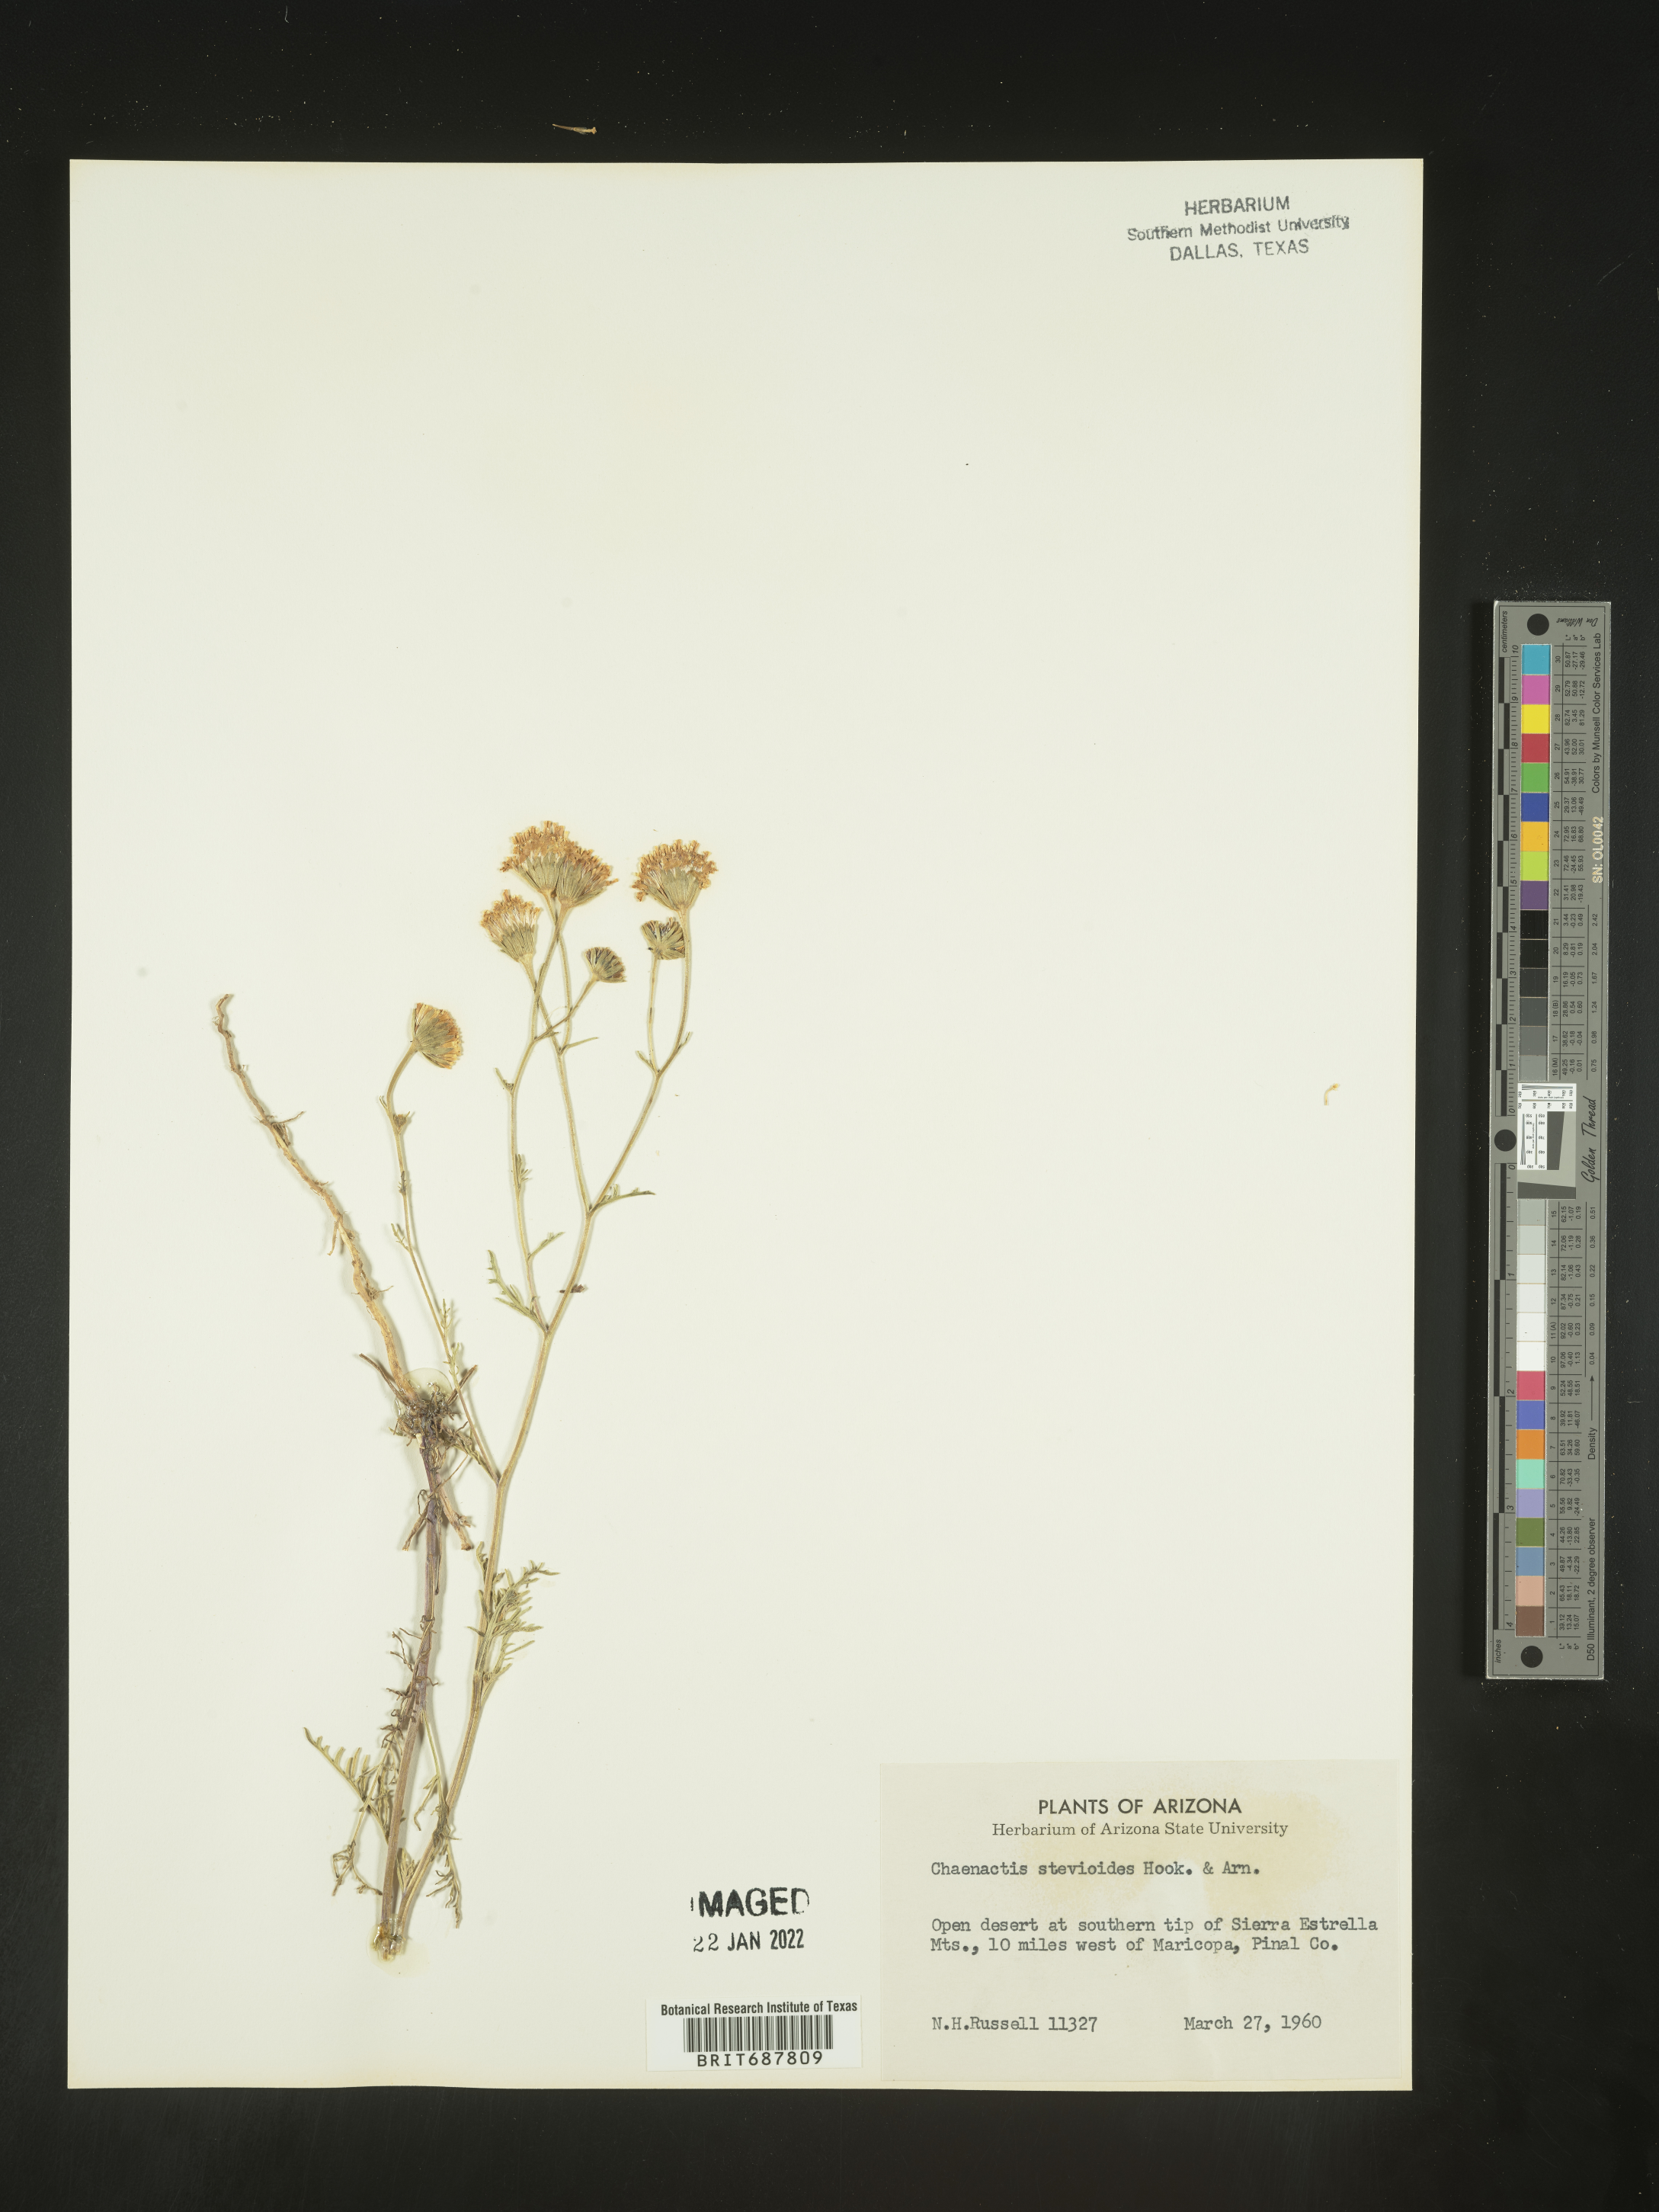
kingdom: Plantae
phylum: Tracheophyta
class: Magnoliopsida
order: Asterales
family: Asteraceae
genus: Chaenactis
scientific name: Chaenactis stevioides
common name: Desert pincushion
